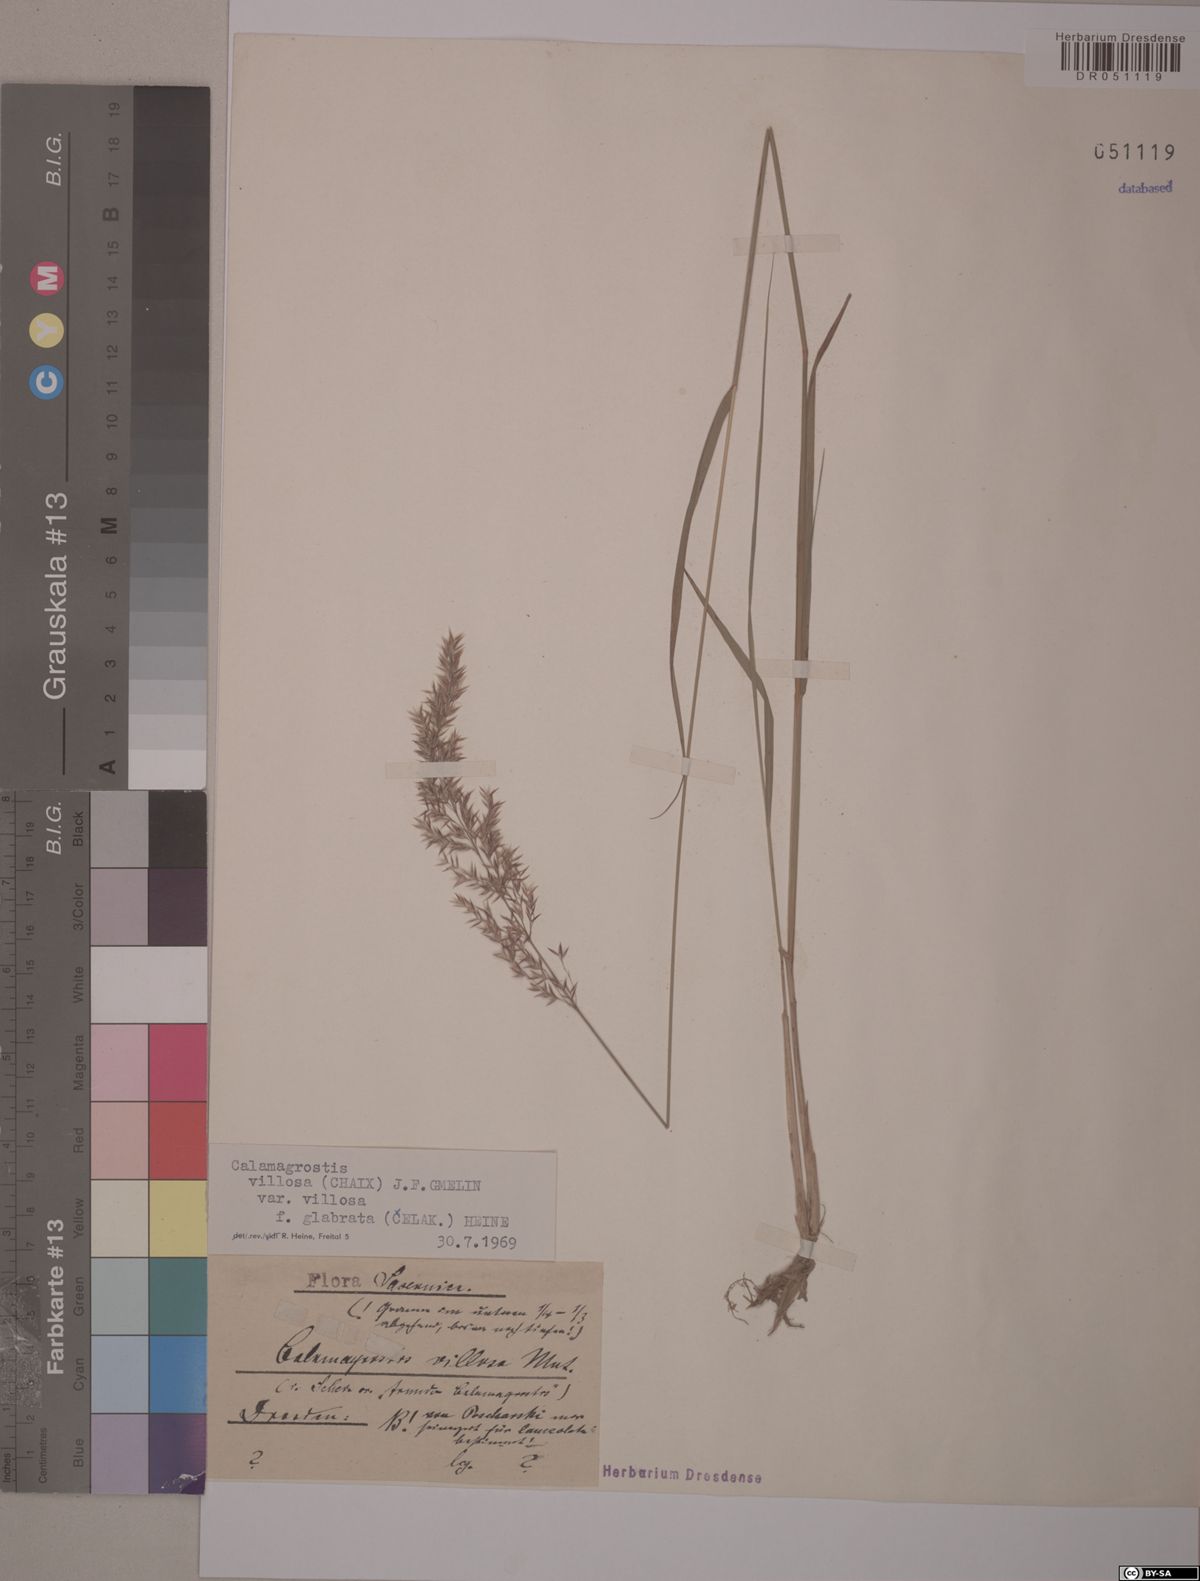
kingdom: Plantae
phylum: Tracheophyta
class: Liliopsida
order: Poales
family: Poaceae
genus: Calamagrostis
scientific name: Calamagrostis villosa
